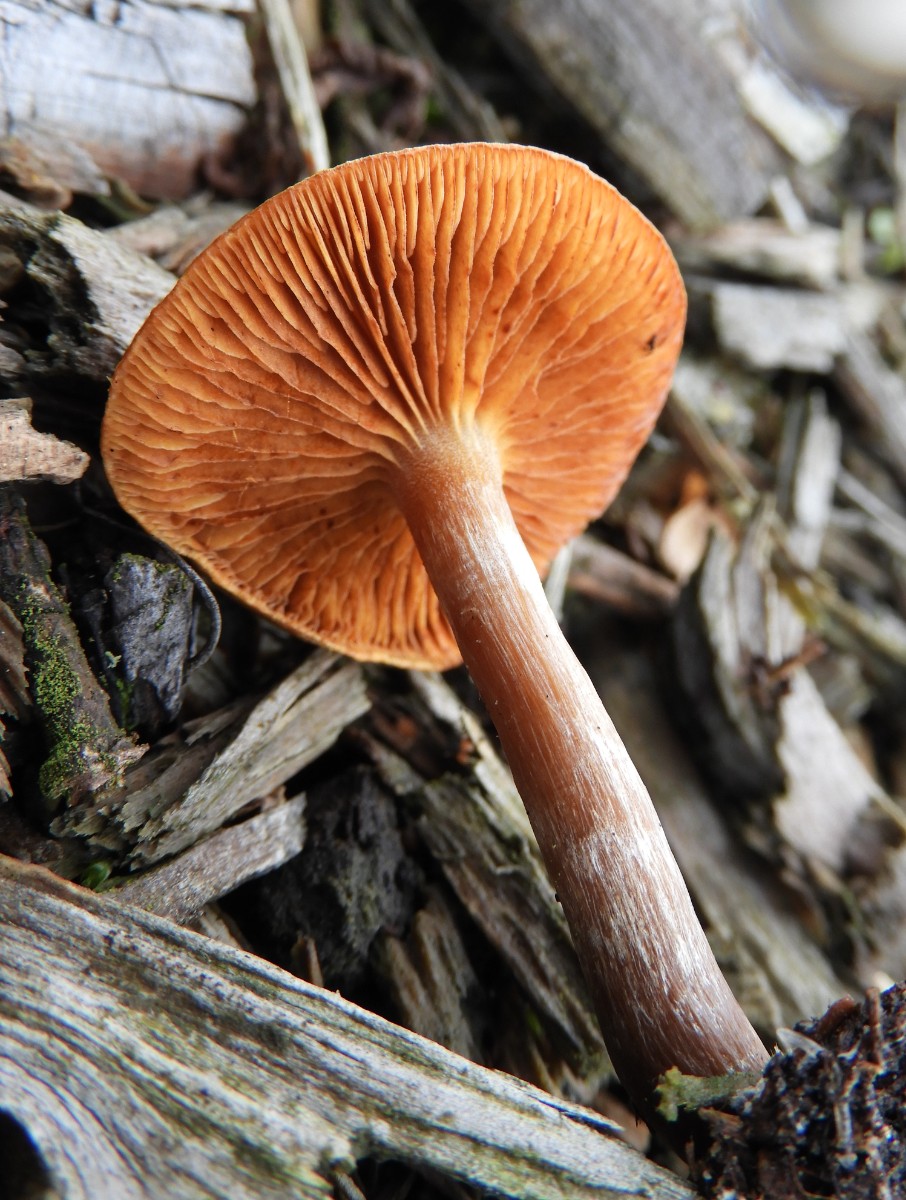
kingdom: Fungi
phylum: Basidiomycota
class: Agaricomycetes
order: Agaricales
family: Cortinariaceae
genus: Cortinarius
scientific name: Cortinarius
